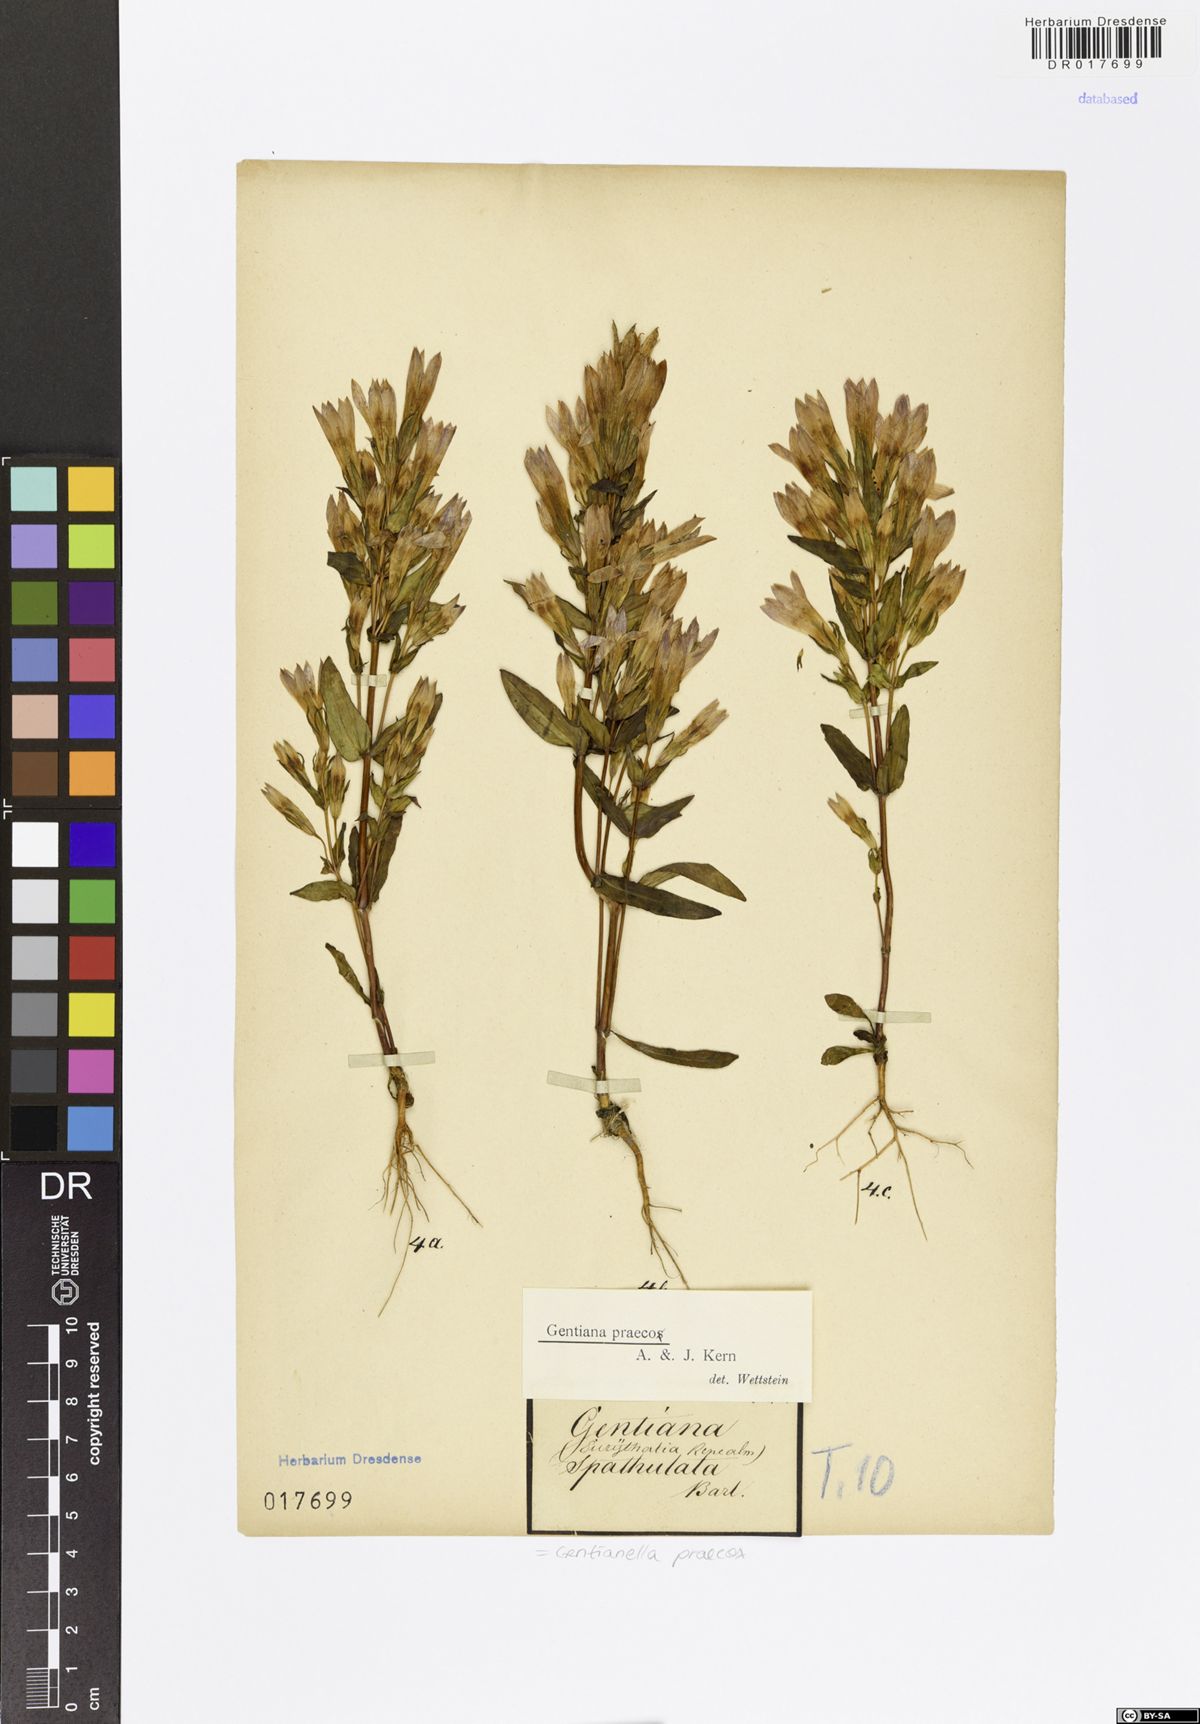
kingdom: Plantae
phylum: Tracheophyta
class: Magnoliopsida
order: Gentianales
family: Gentianaceae
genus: Gentianella
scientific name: Gentianella praecox
